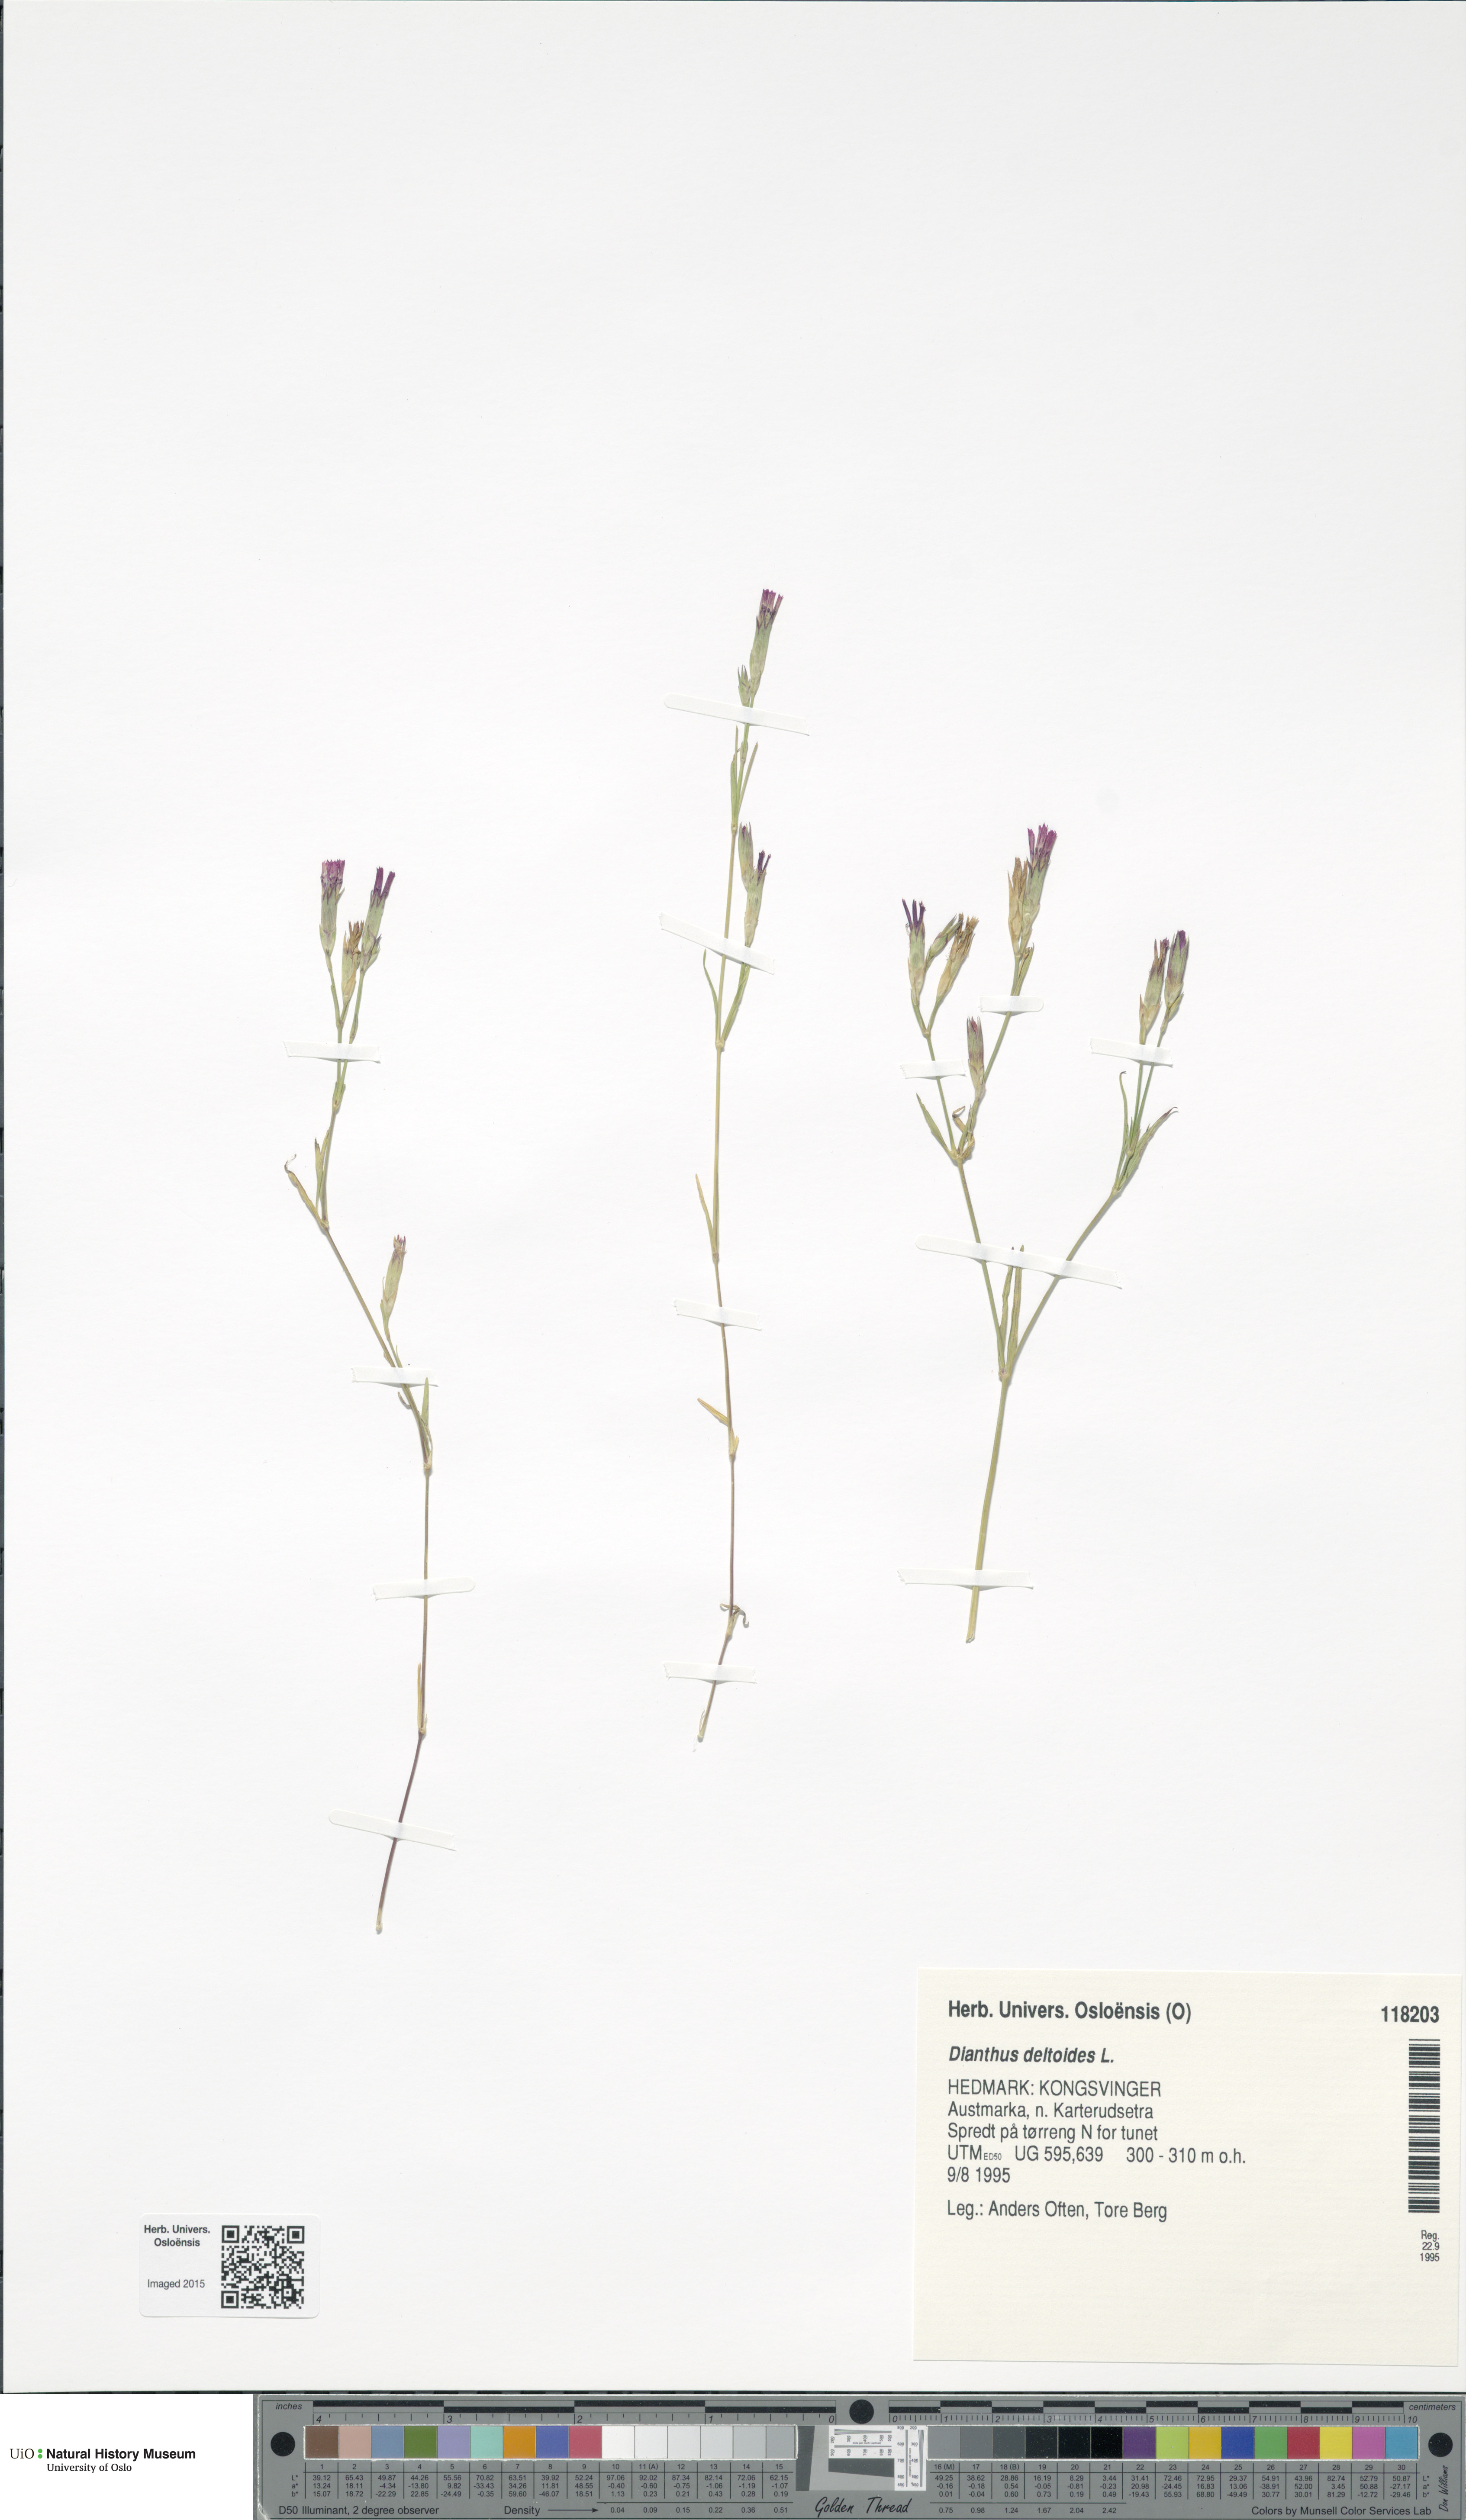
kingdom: Plantae
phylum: Tracheophyta
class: Magnoliopsida
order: Caryophyllales
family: Caryophyllaceae
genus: Dianthus
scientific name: Dianthus deltoides
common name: Maiden pink
